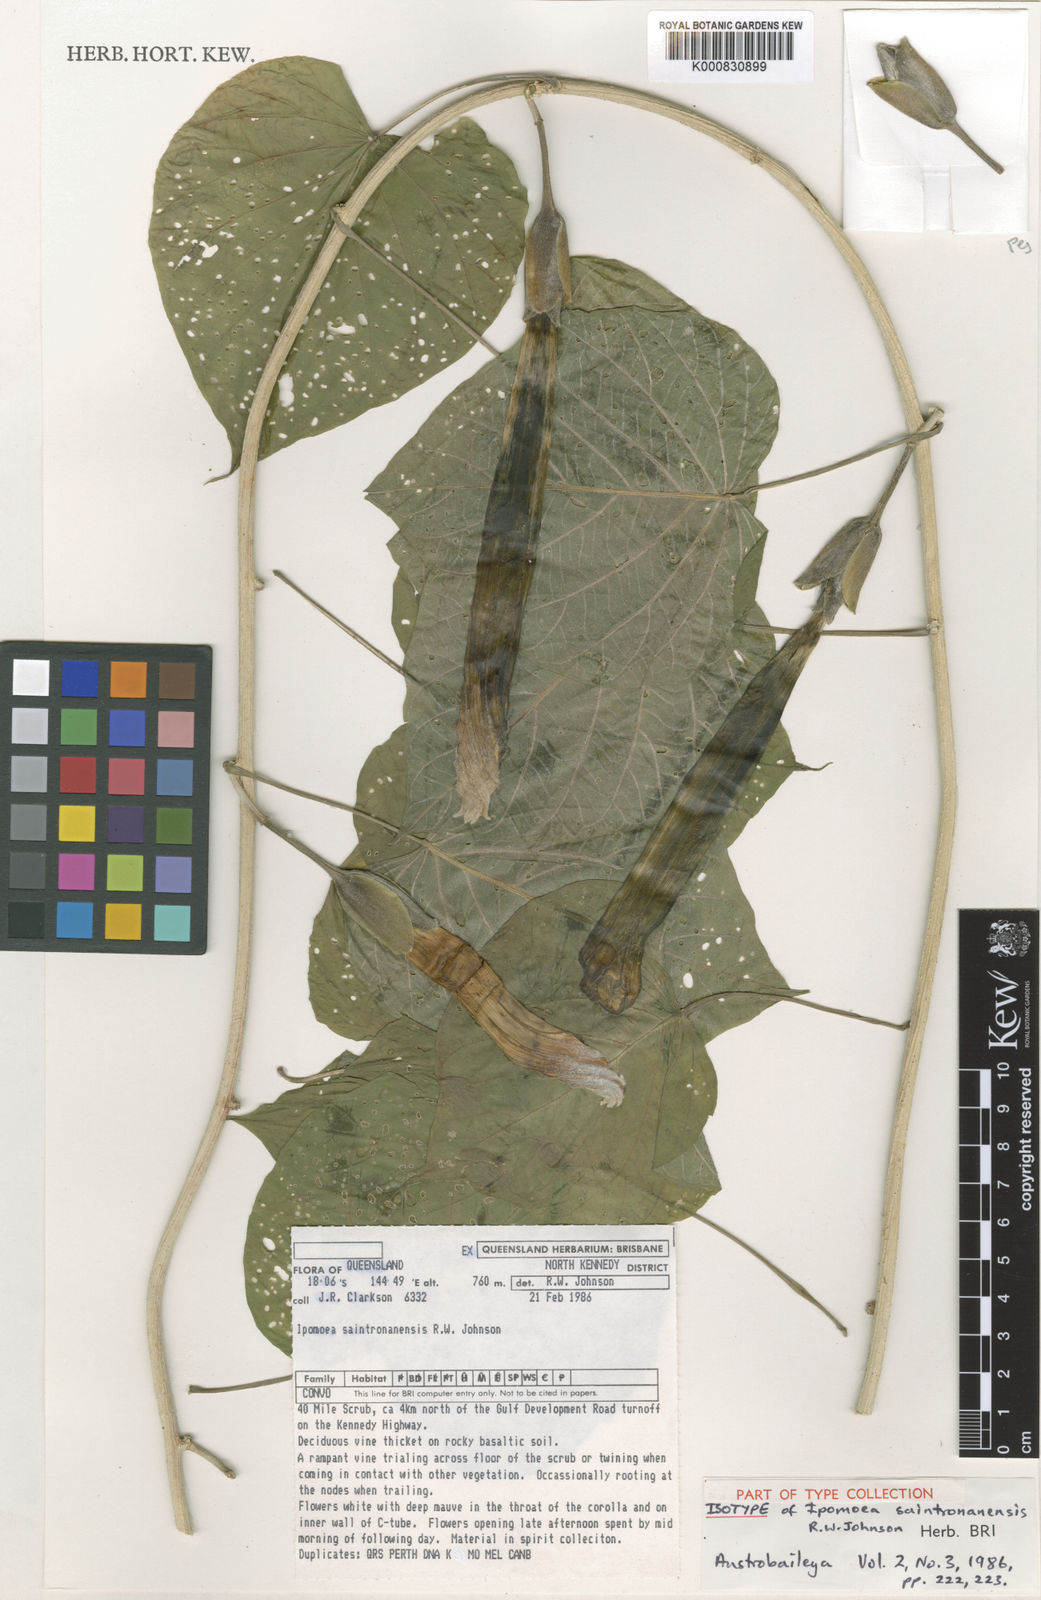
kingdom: Plantae
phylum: Tracheophyta
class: Magnoliopsida
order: Solanales
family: Convolvulaceae
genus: Ipomoea
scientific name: Ipomoea saintronanensis
